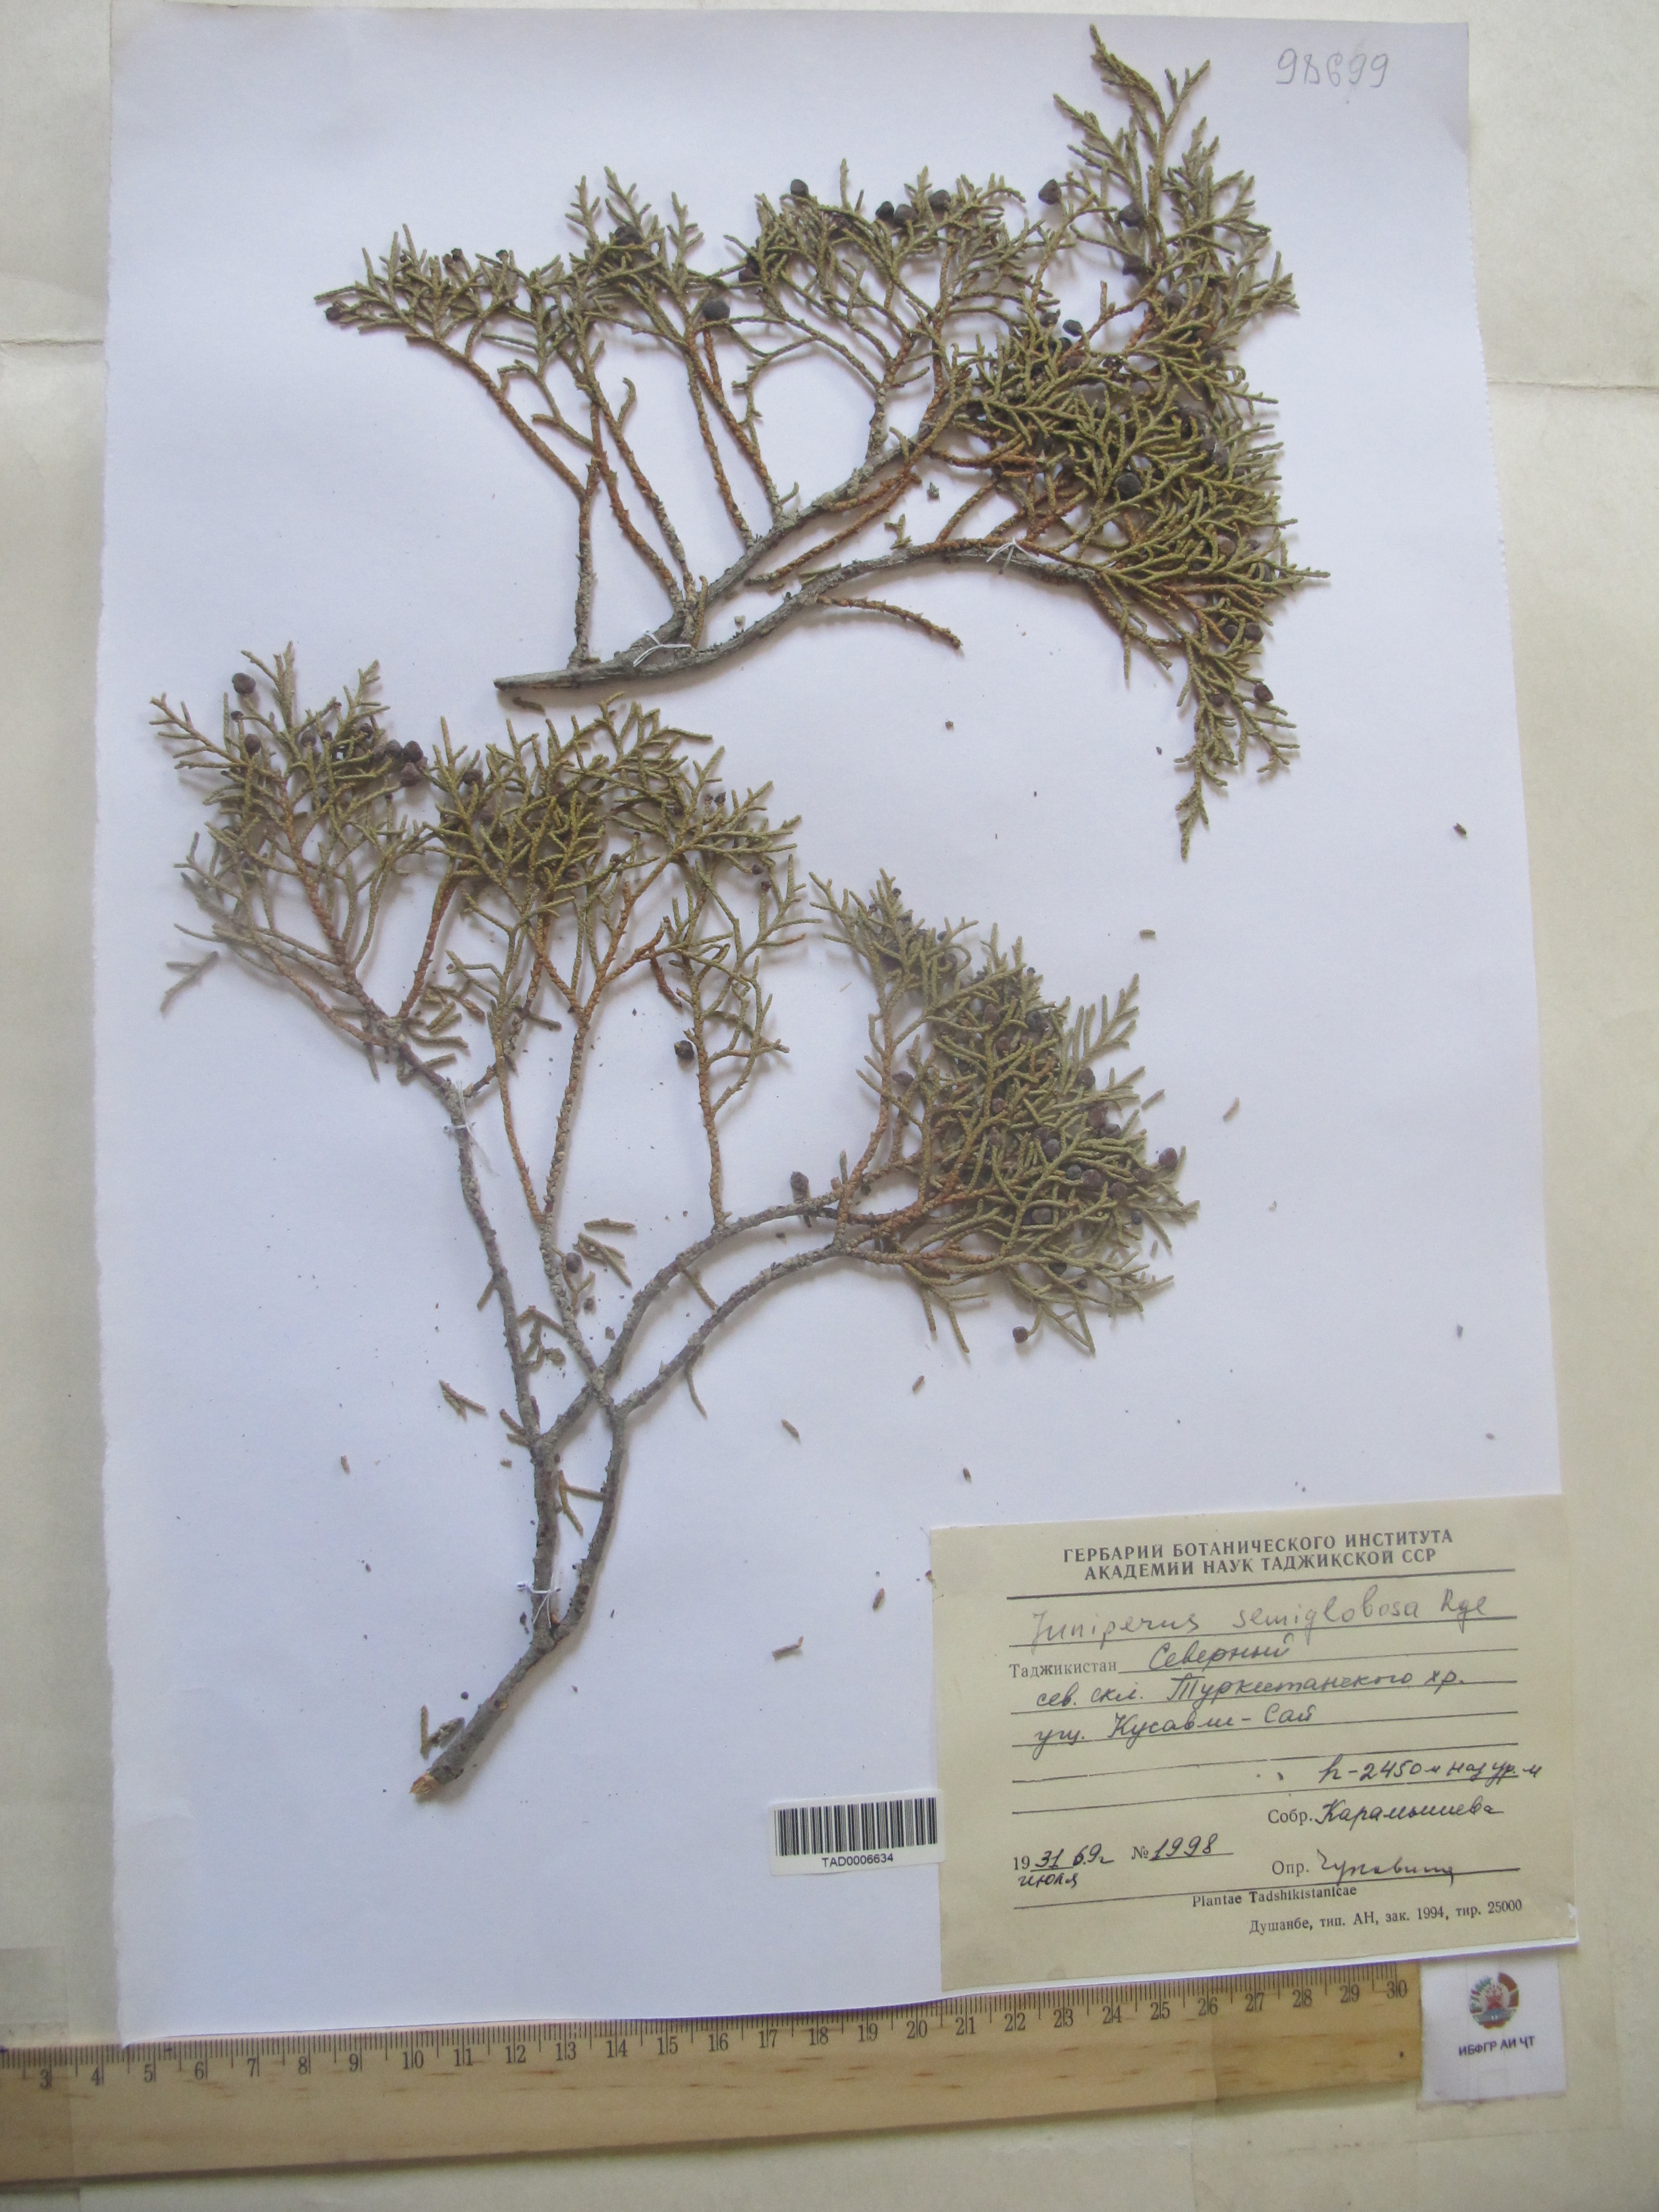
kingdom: Plantae
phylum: Tracheophyta
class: Pinopsida
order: Pinales
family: Cupressaceae
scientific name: Cupressaceae
